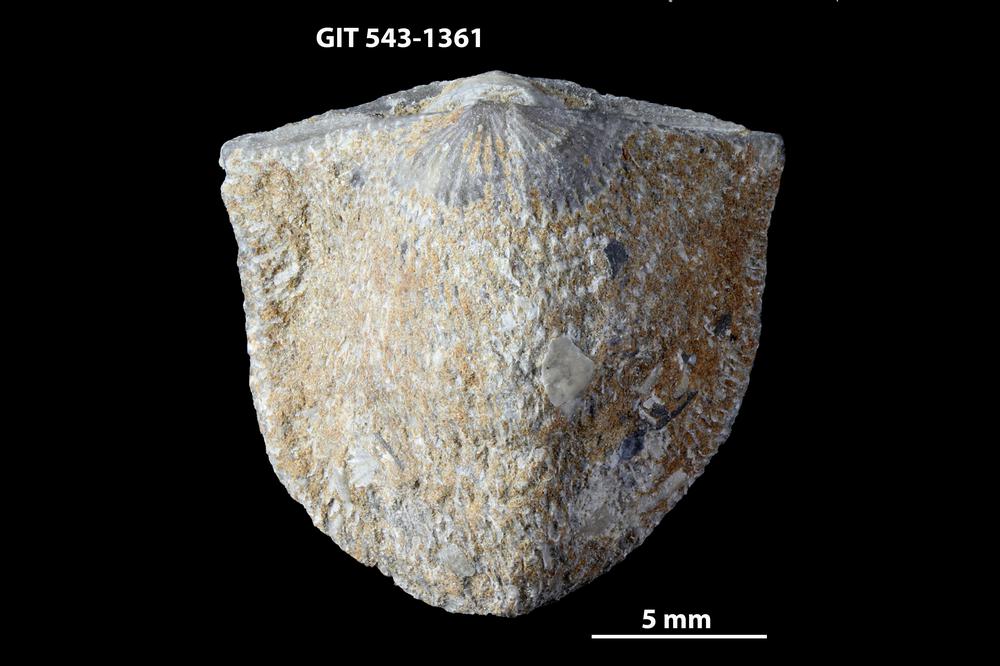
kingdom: Animalia
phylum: Brachiopoda
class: Rhynchonellata
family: Clitambonitidae
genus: Clitambonites
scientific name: Clitambonites Orthisina schmidti
